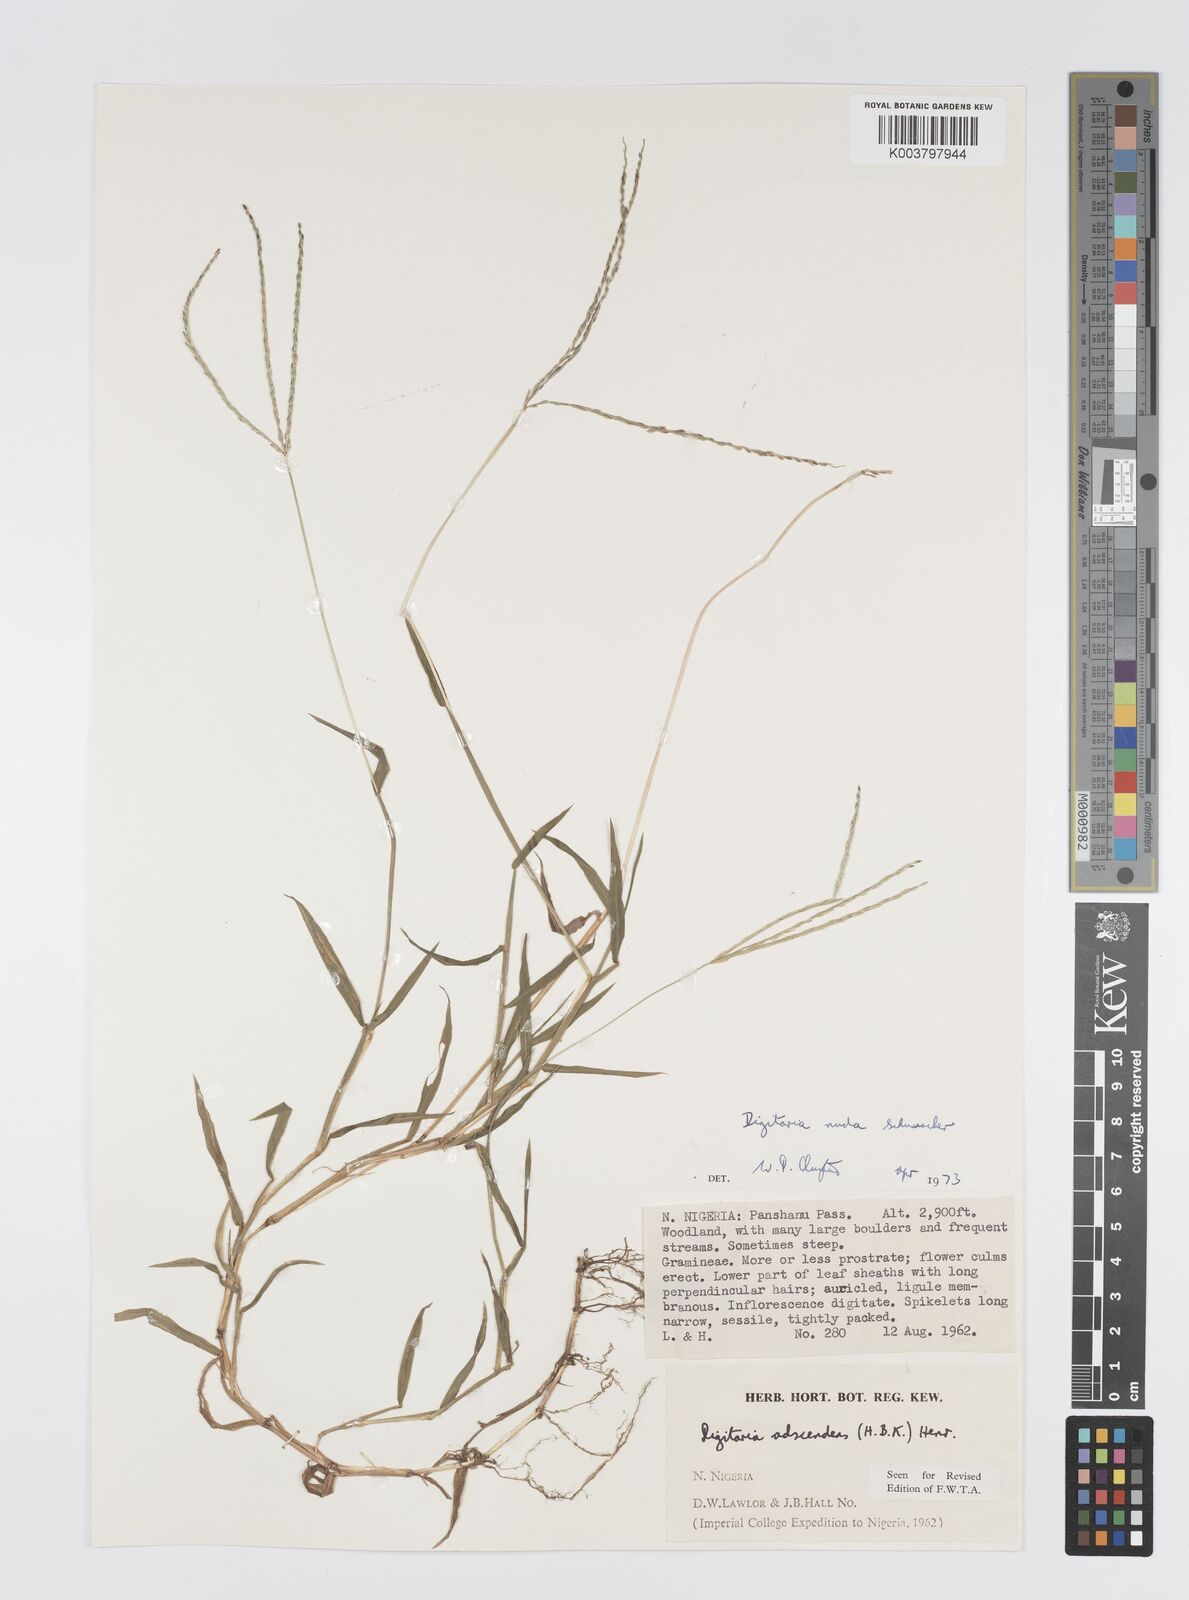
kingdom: Plantae
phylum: Tracheophyta
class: Liliopsida
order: Poales
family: Poaceae
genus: Digitaria
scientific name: Digitaria nuda
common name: Naked crabgrass
